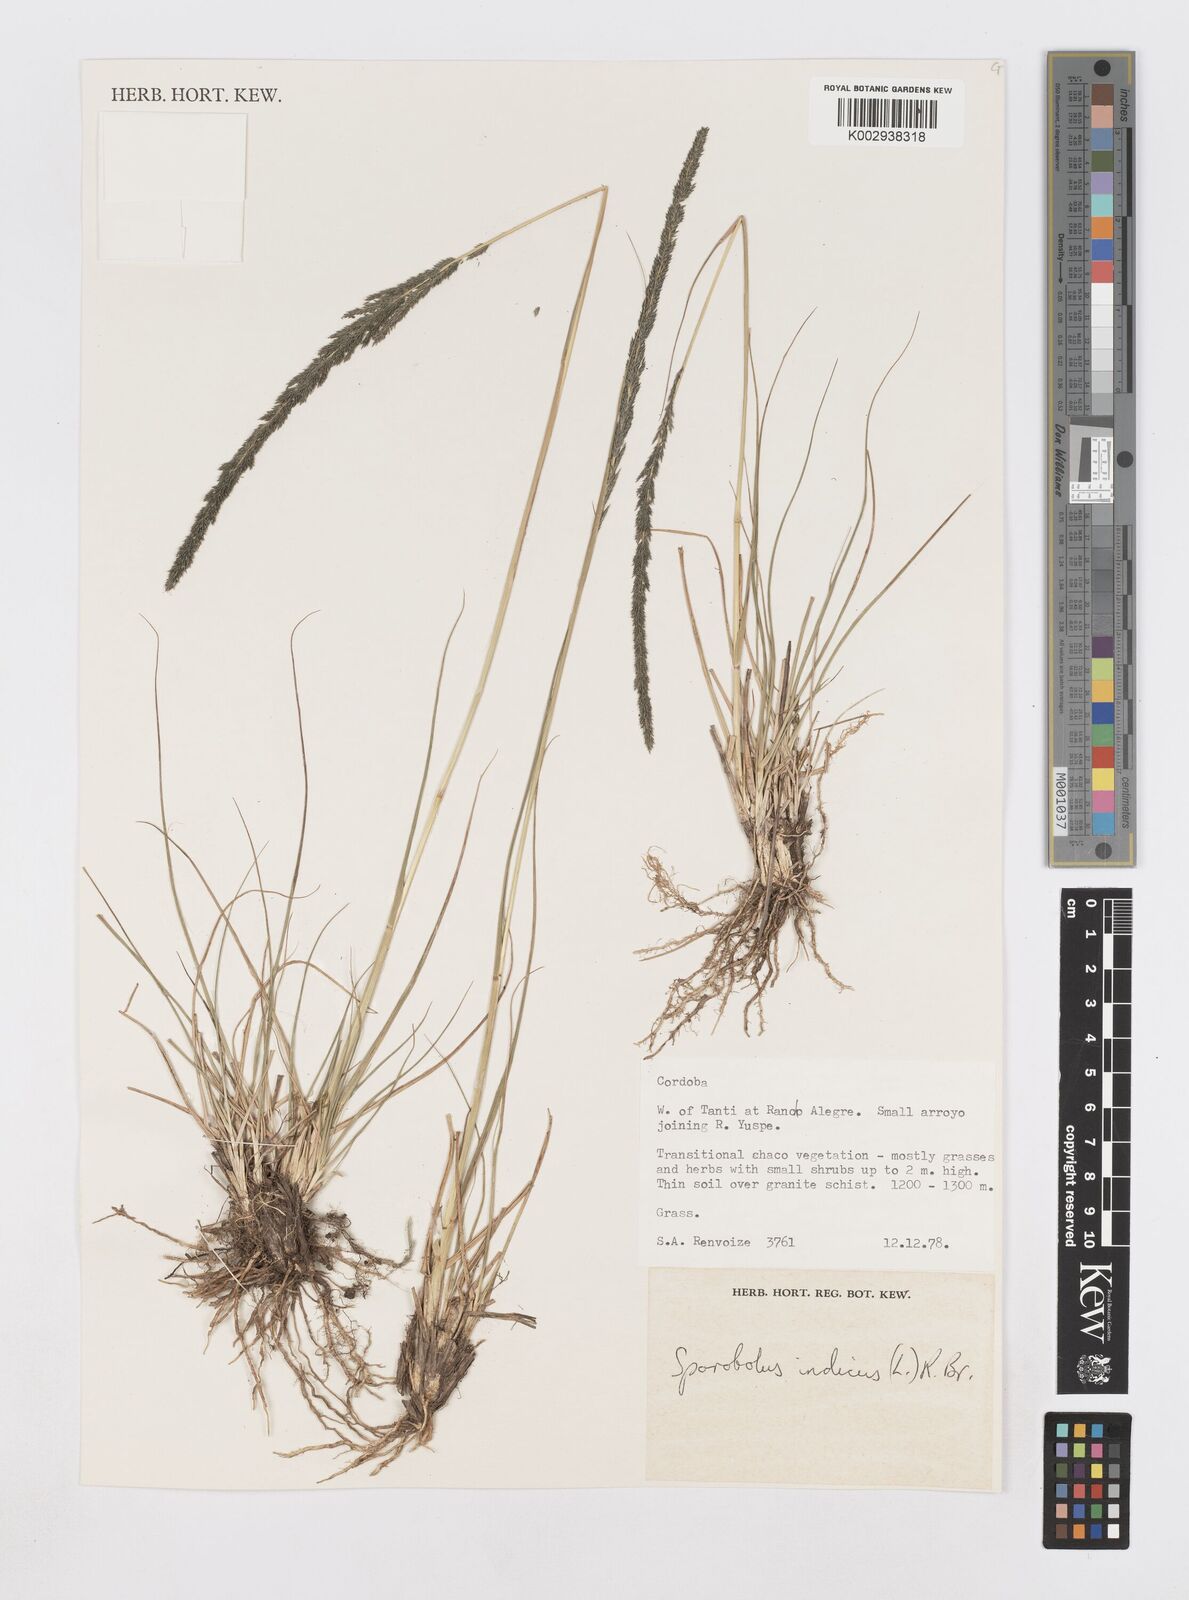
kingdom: Plantae
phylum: Tracheophyta
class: Liliopsida
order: Poales
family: Poaceae
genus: Sporobolus
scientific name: Sporobolus indicus
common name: Smut grass
